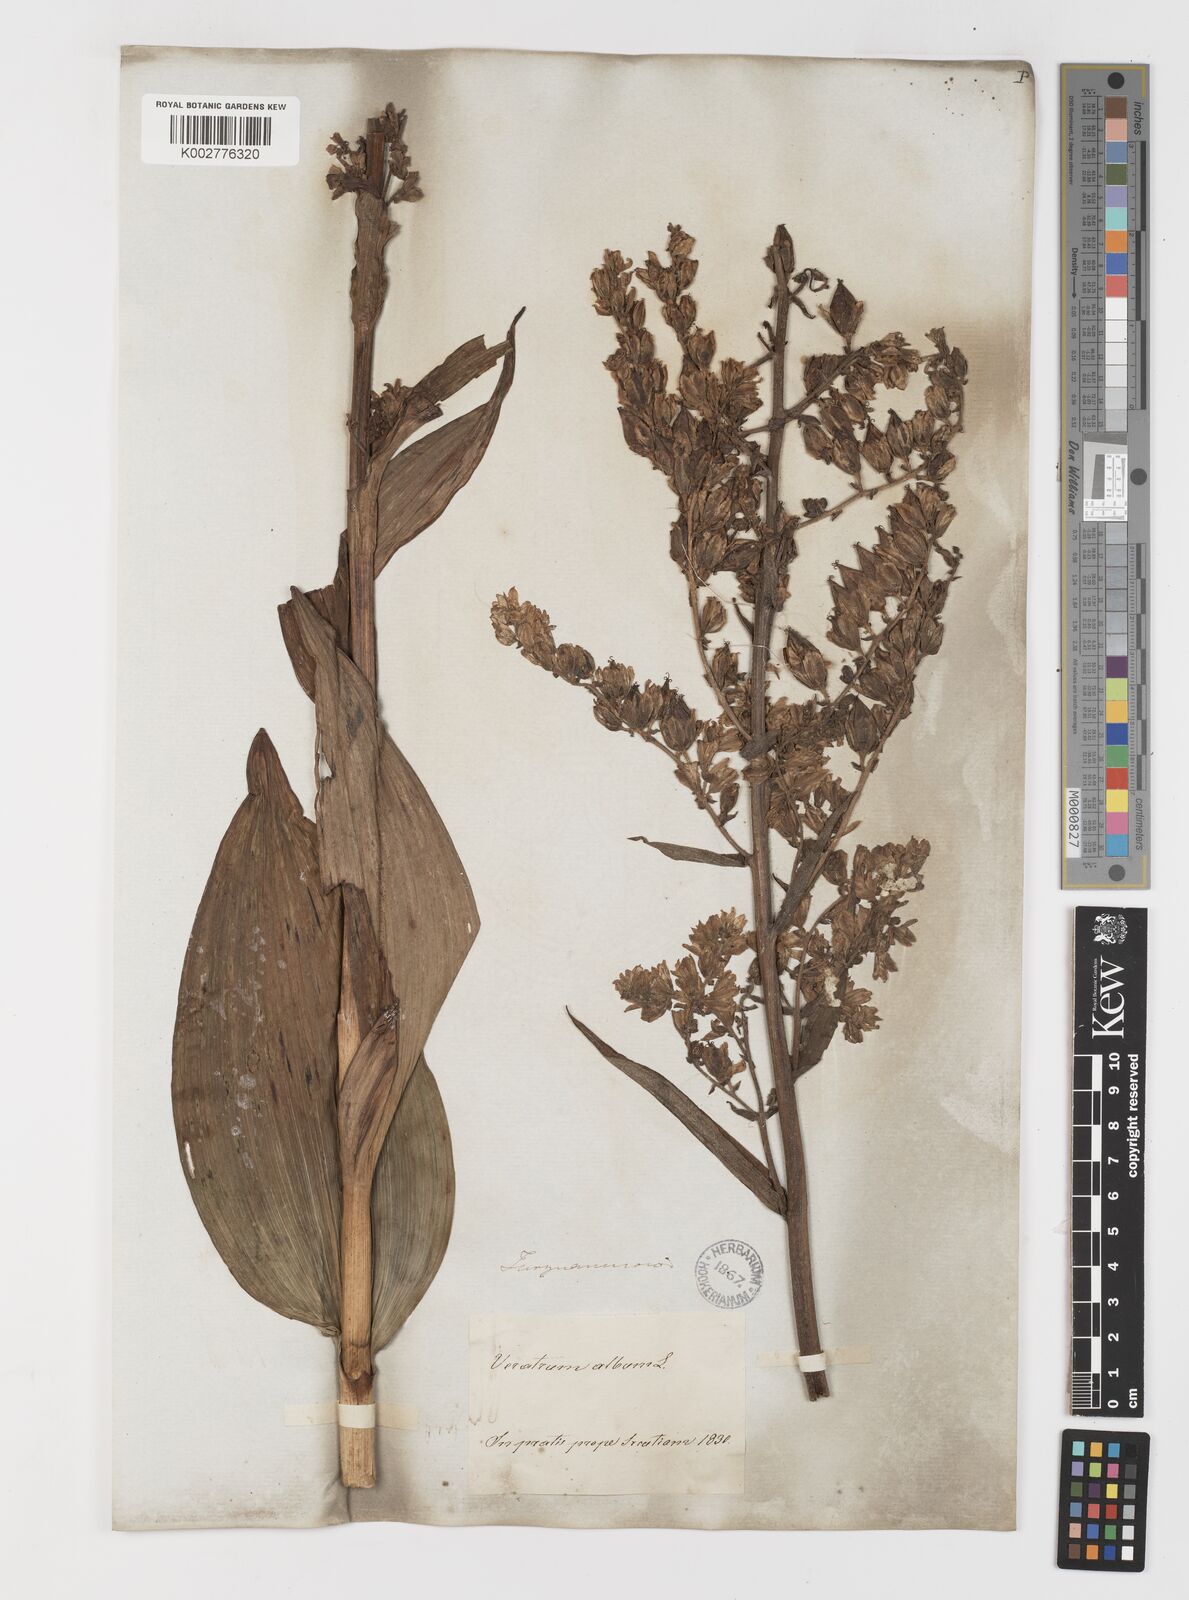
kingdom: Plantae
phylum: Tracheophyta
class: Liliopsida
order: Liliales
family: Melanthiaceae
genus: Veratrum
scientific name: Veratrum album
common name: White veratrum
